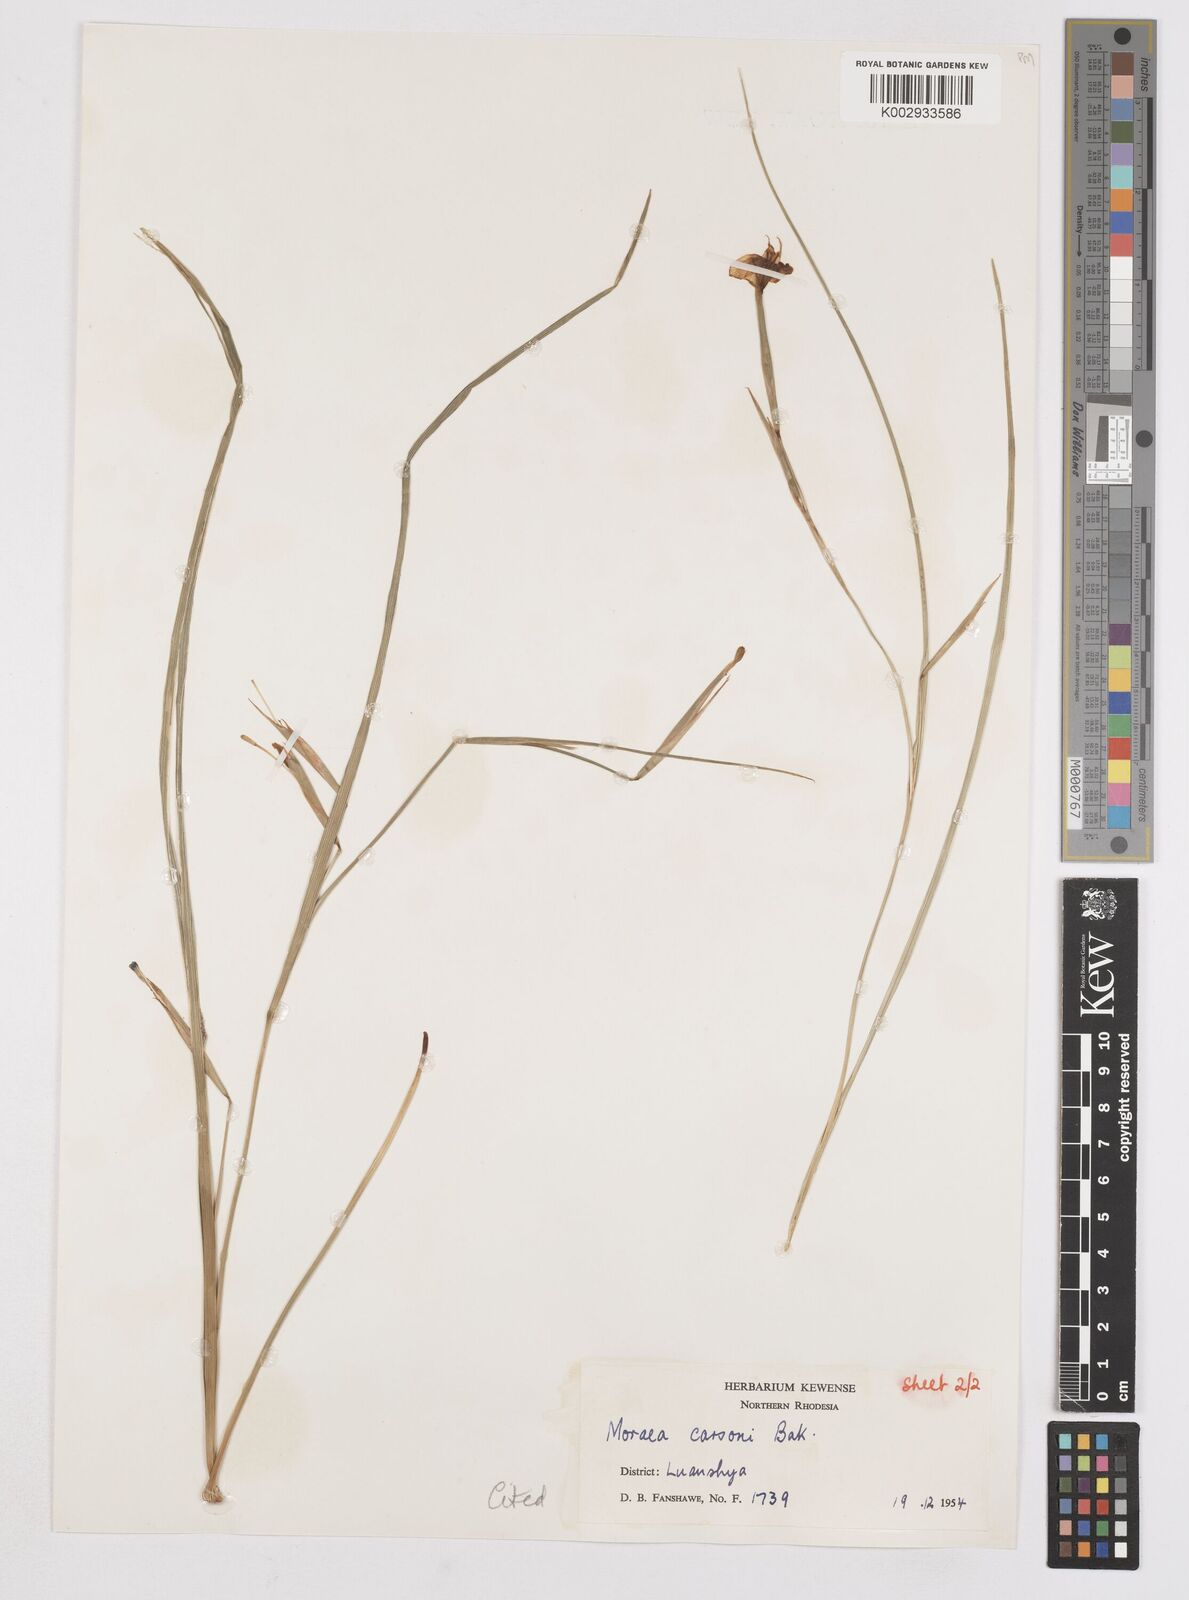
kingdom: Plantae
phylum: Tracheophyta
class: Liliopsida
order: Asparagales
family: Iridaceae
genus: Moraea
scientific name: Moraea carsonii
